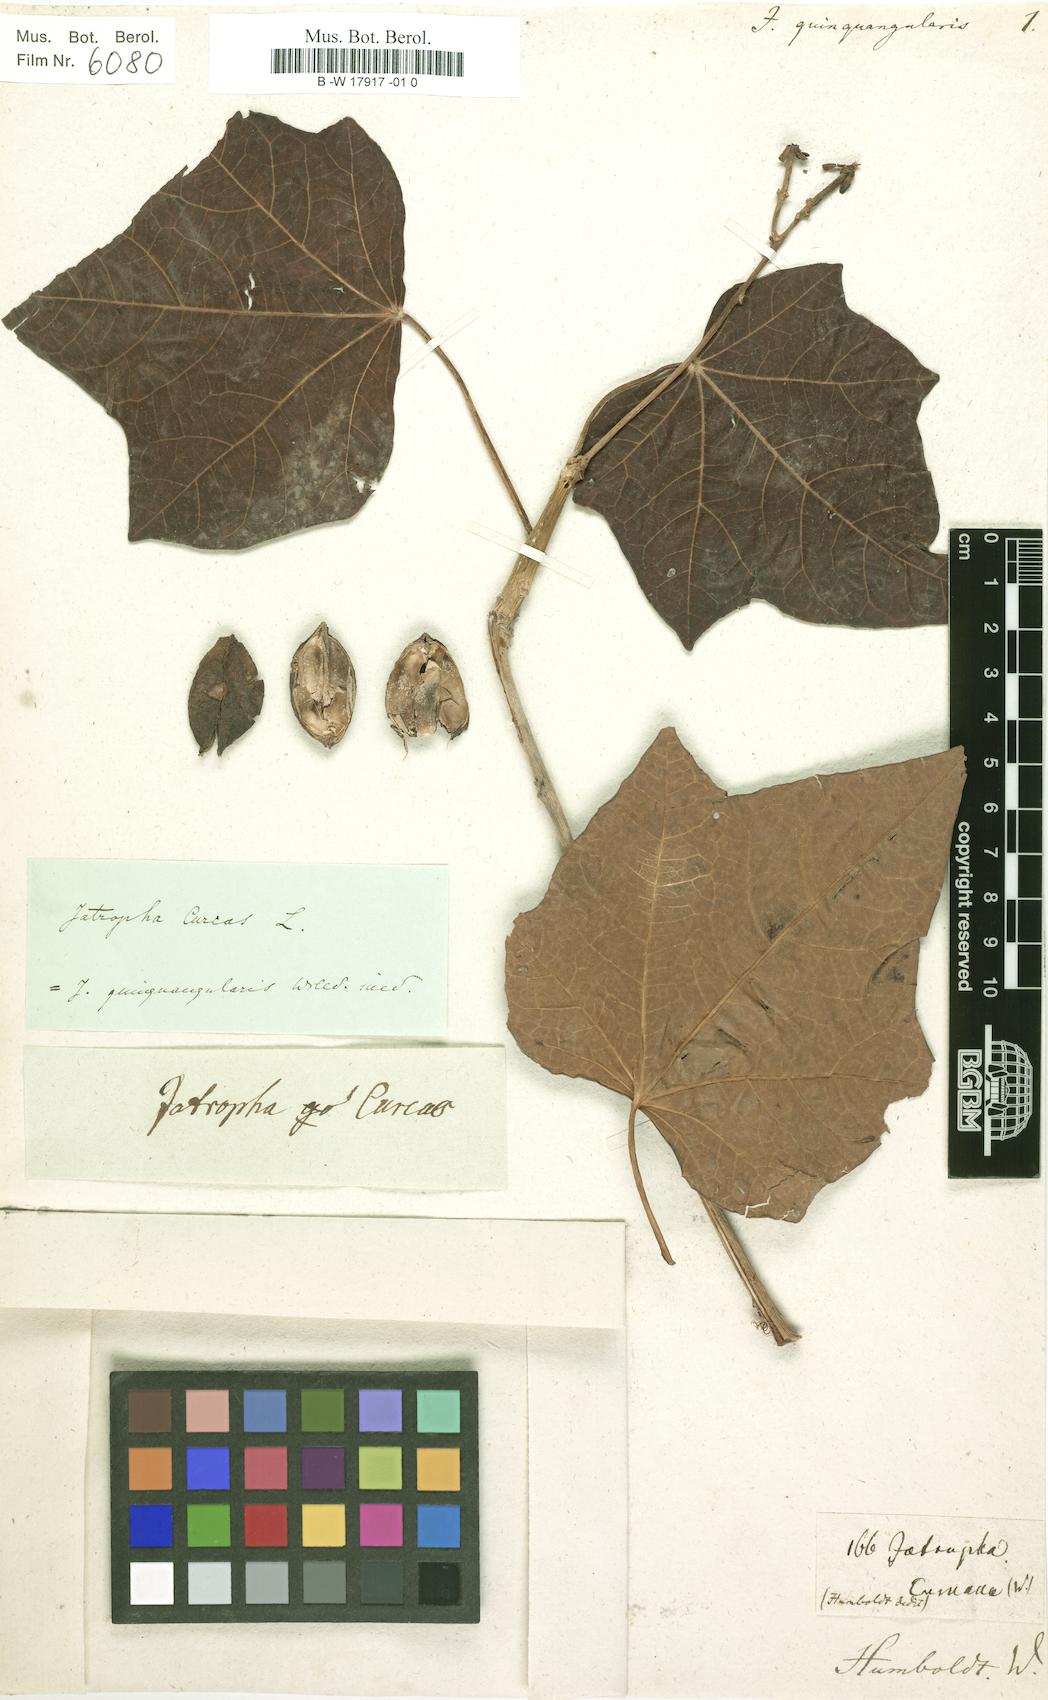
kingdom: Plantae
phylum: Tracheophyta
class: Magnoliopsida
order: Malpighiales
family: Euphorbiaceae
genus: Jatropha
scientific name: Jatropha
